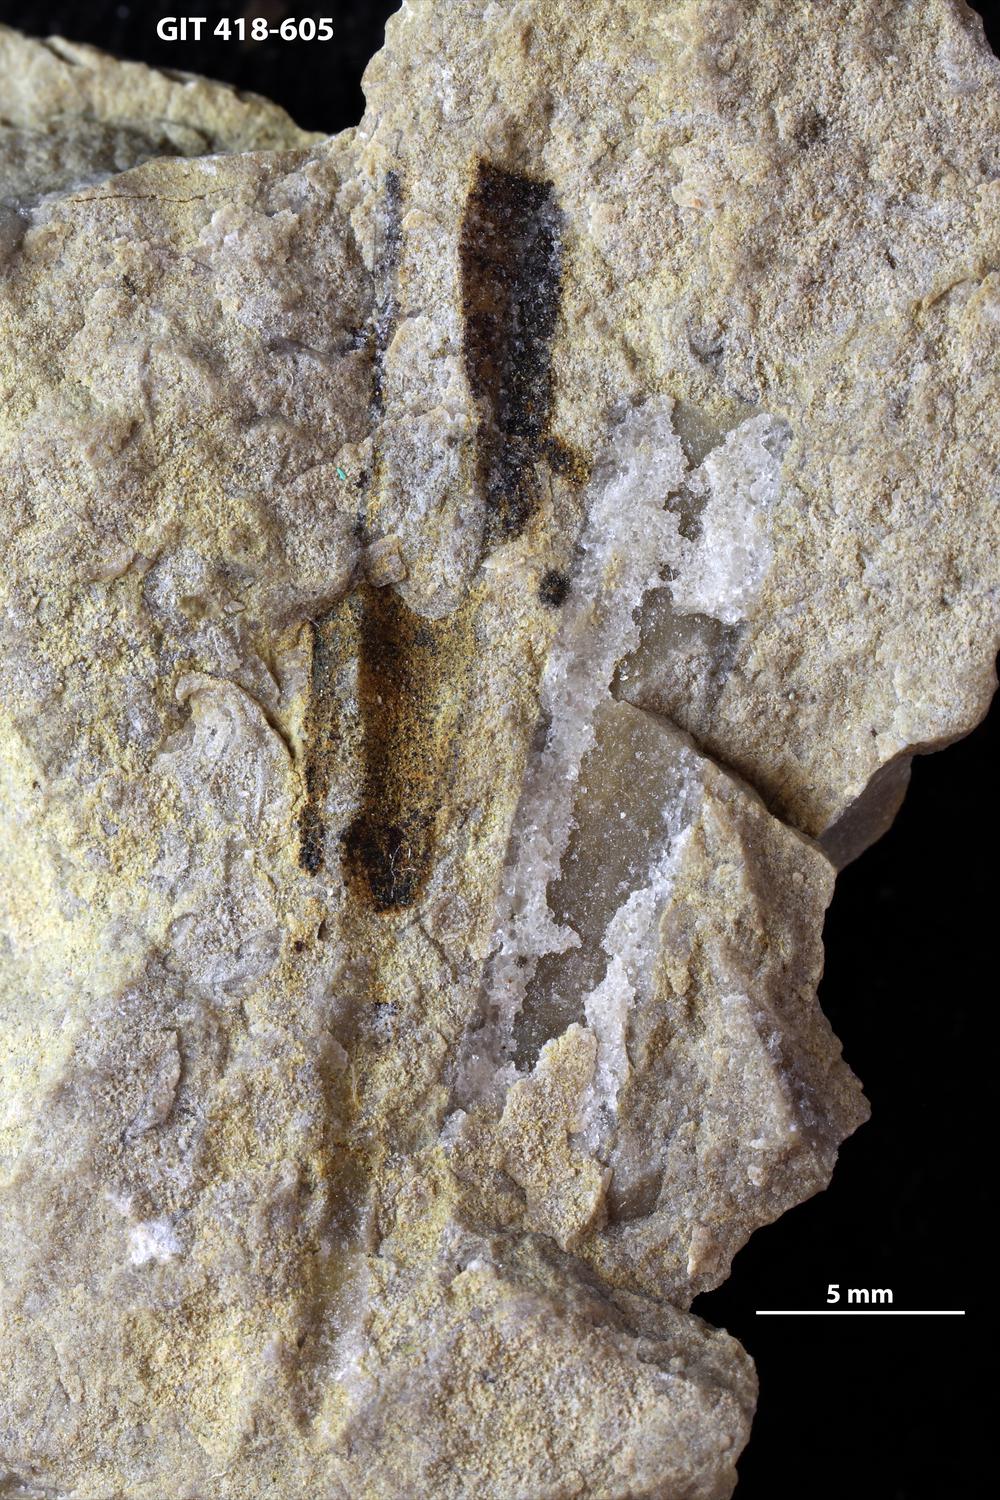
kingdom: Animalia
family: Hyolithidae
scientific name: Hyolithidae
